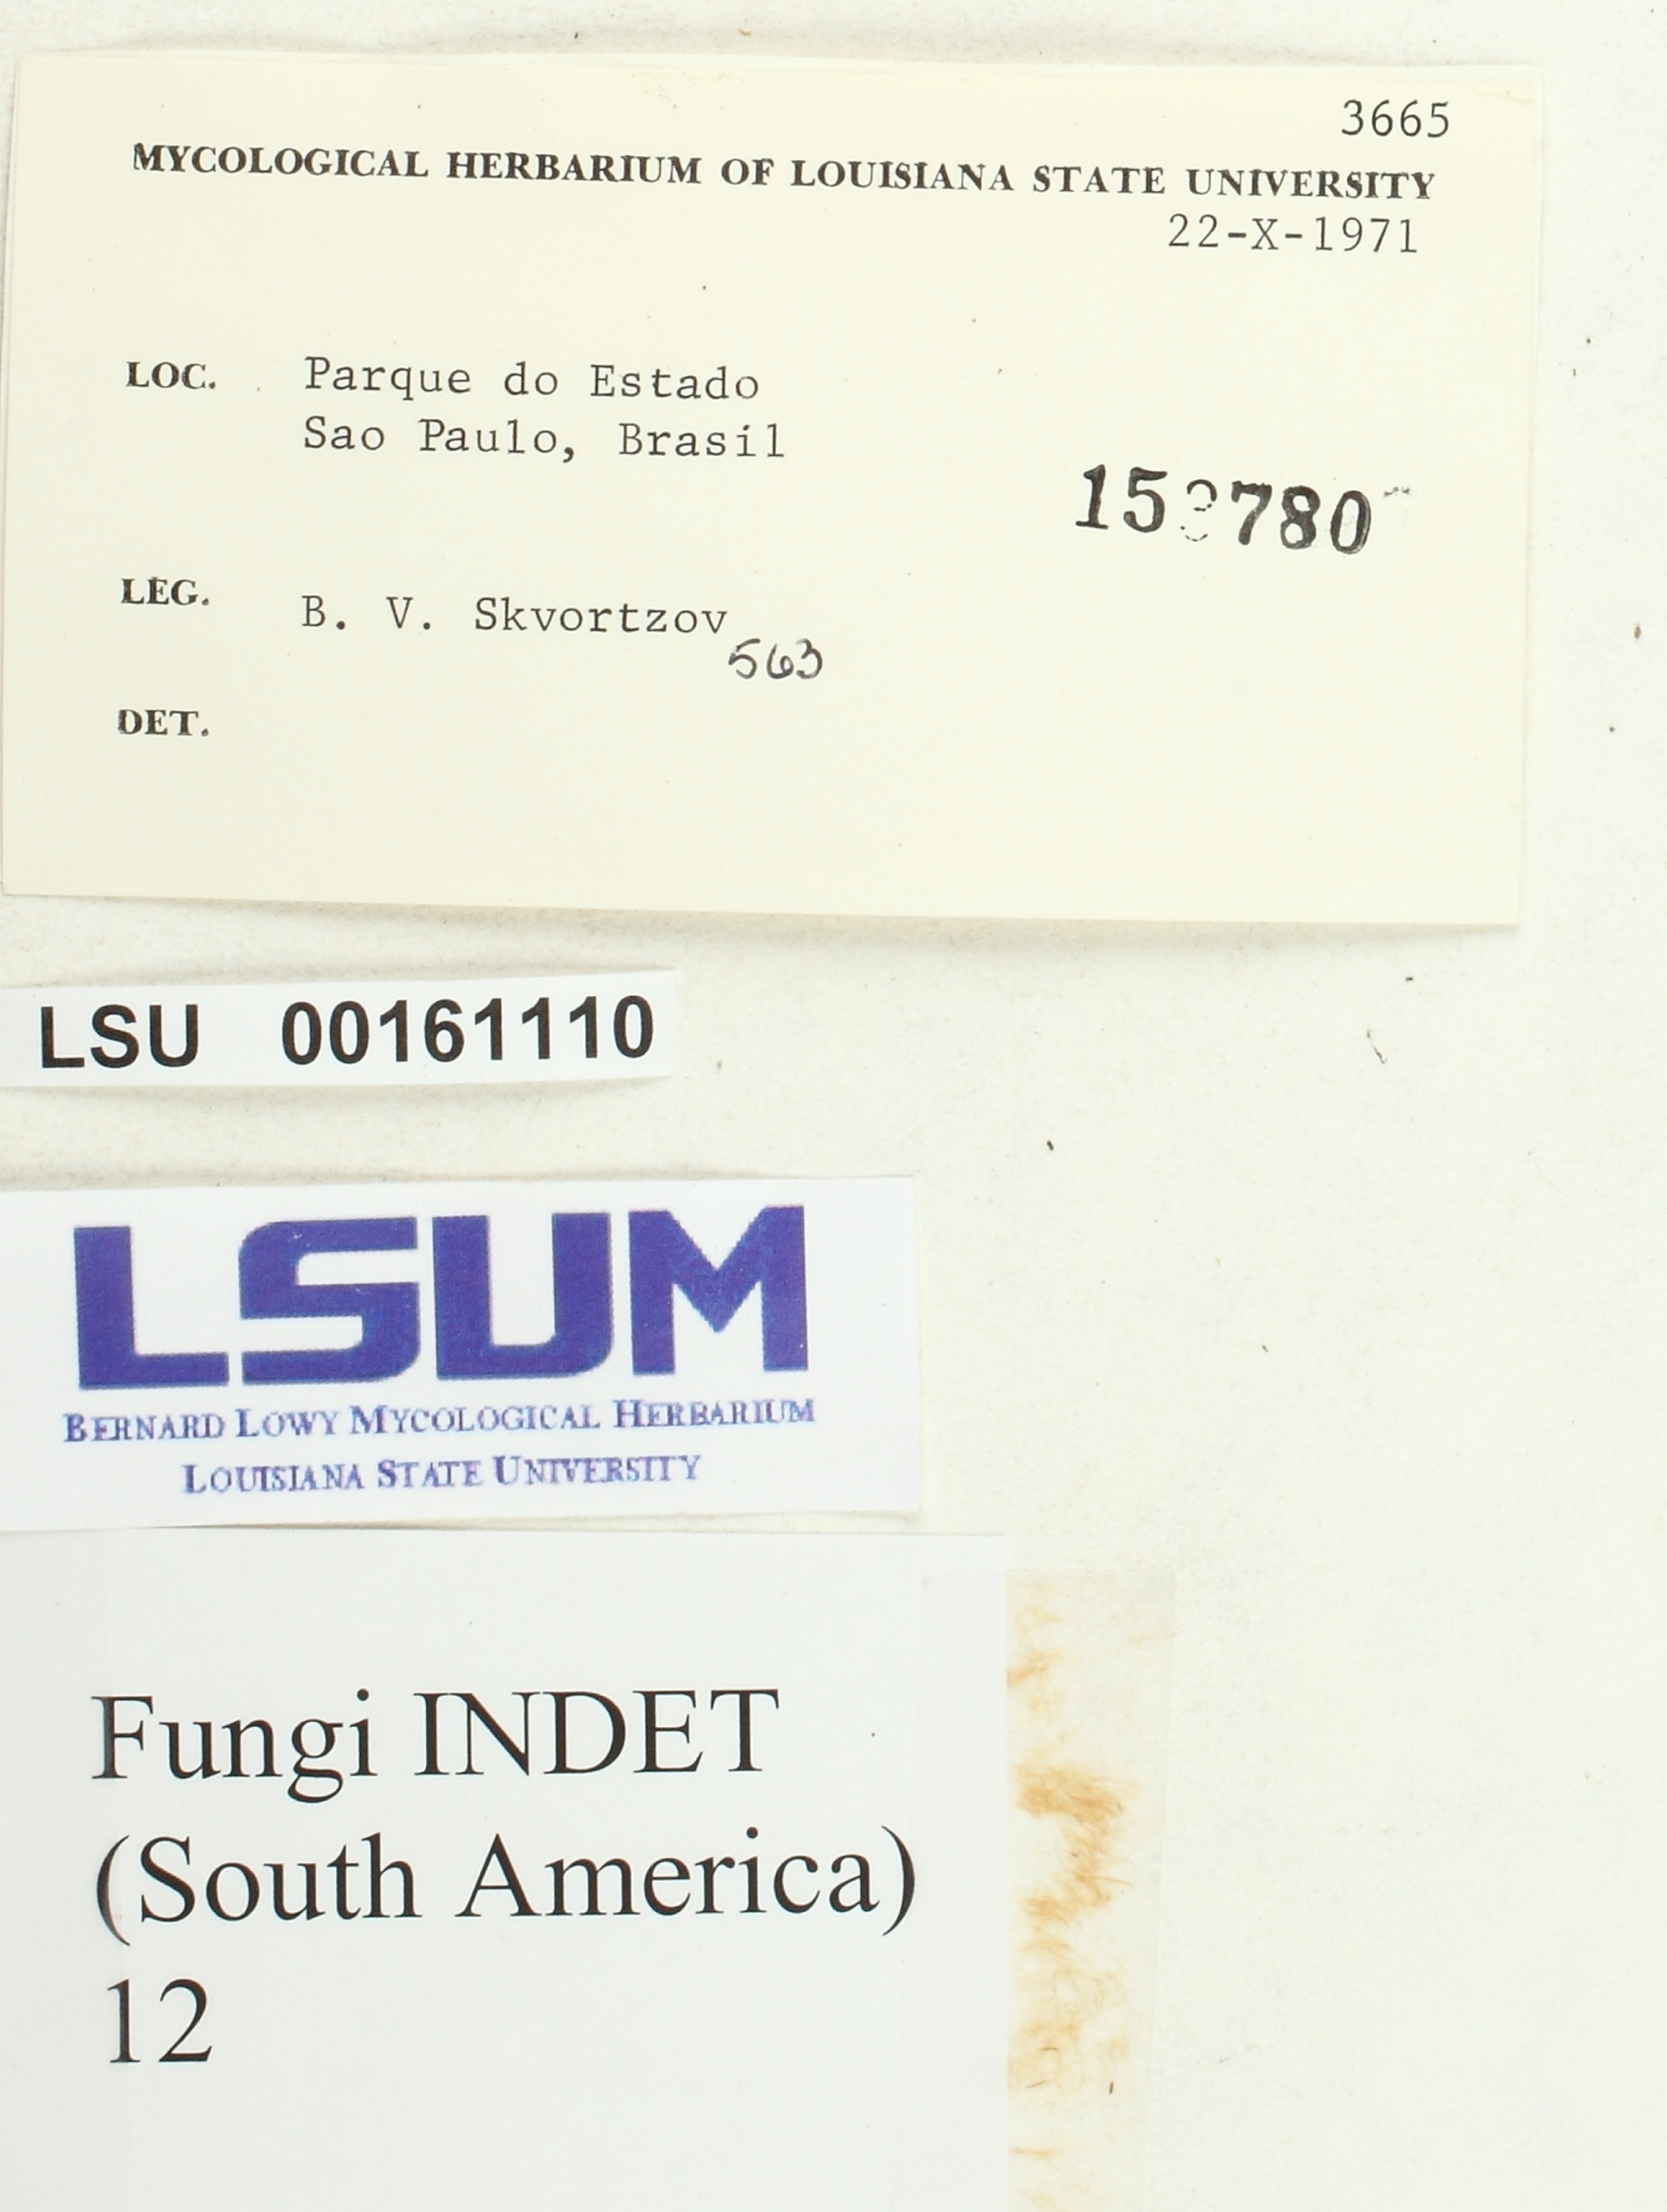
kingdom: Fungi
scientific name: Fungi
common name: Fungi
